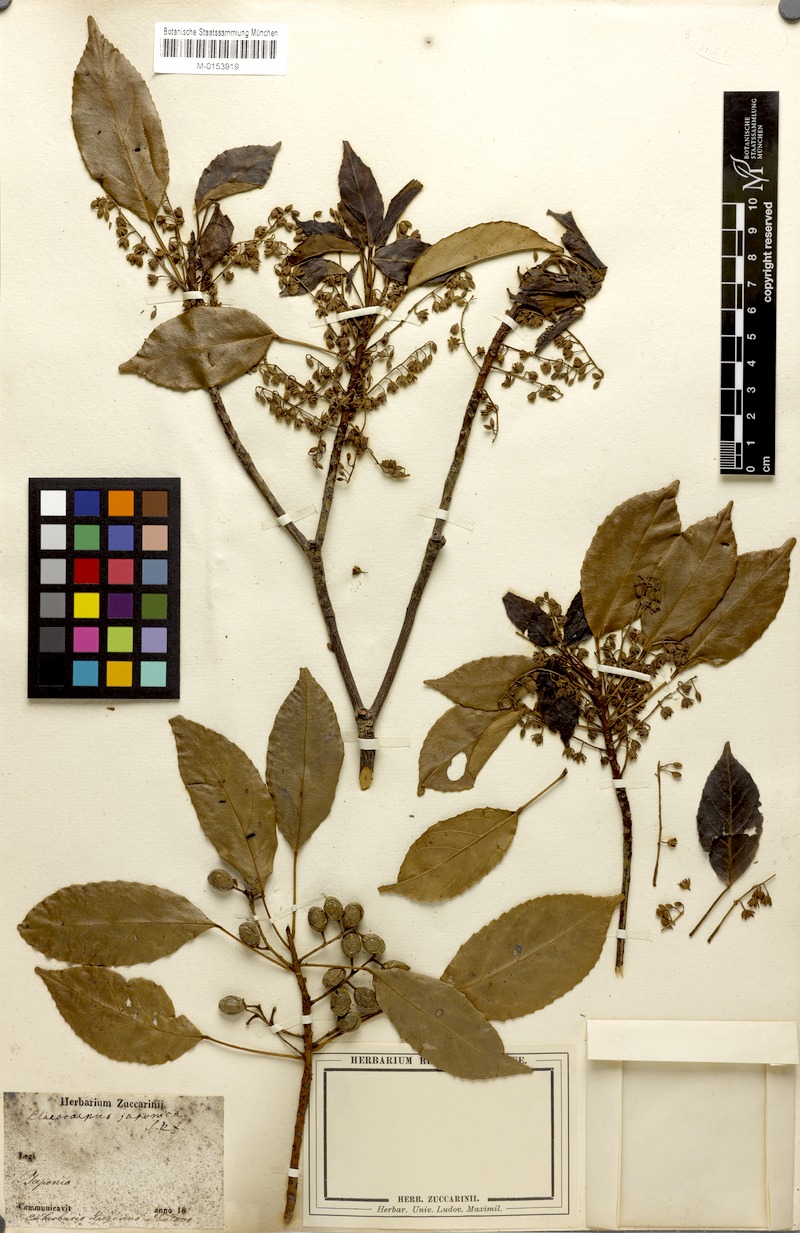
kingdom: Plantae
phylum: Tracheophyta
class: Magnoliopsida
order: Oxalidales
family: Elaeocarpaceae
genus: Elaeocarpus
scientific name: Elaeocarpus japonicus
